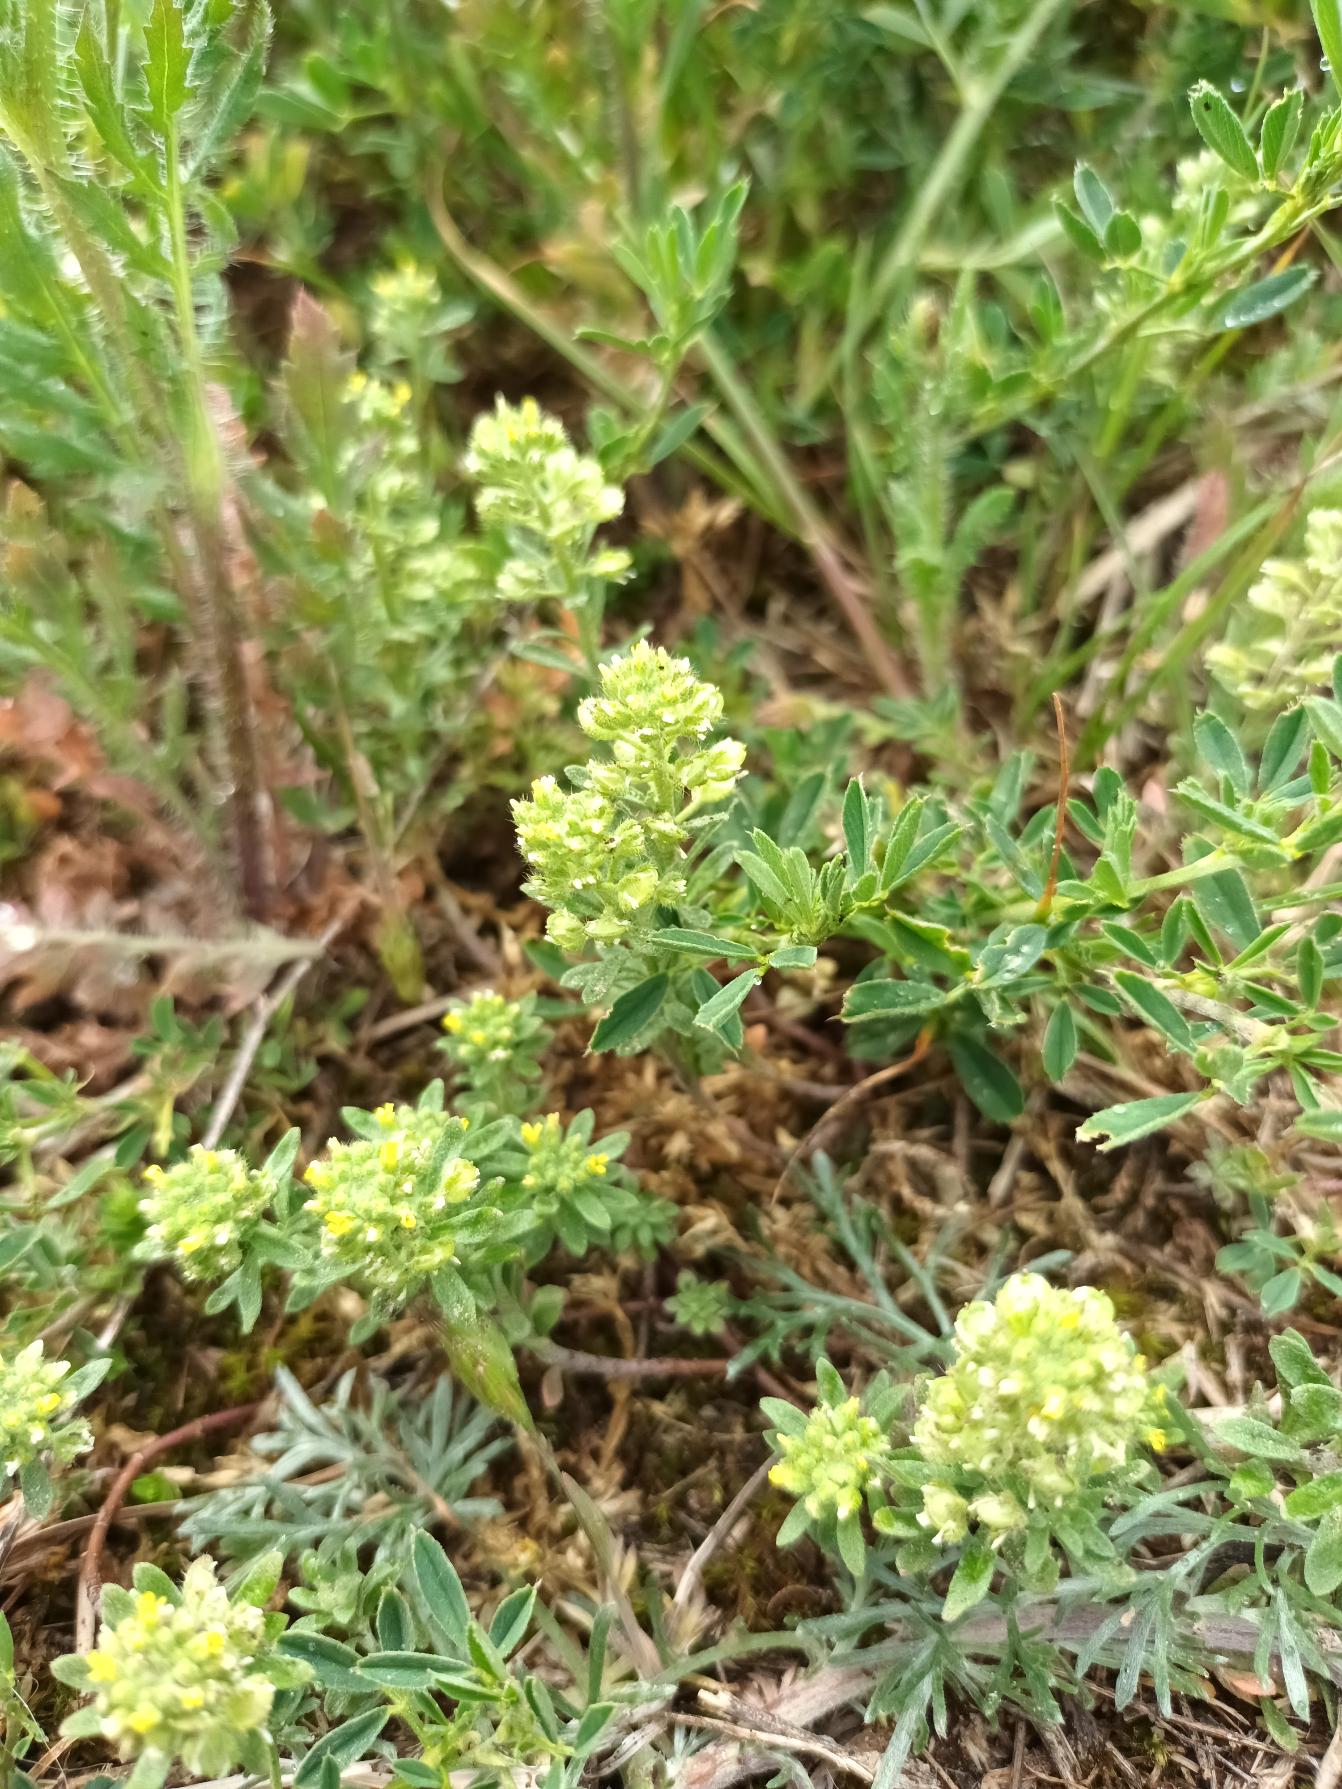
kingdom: Plantae
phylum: Tracheophyta
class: Magnoliopsida
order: Brassicales
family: Brassicaceae
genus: Alyssum
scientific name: Alyssum alyssoides
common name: Grådodder
